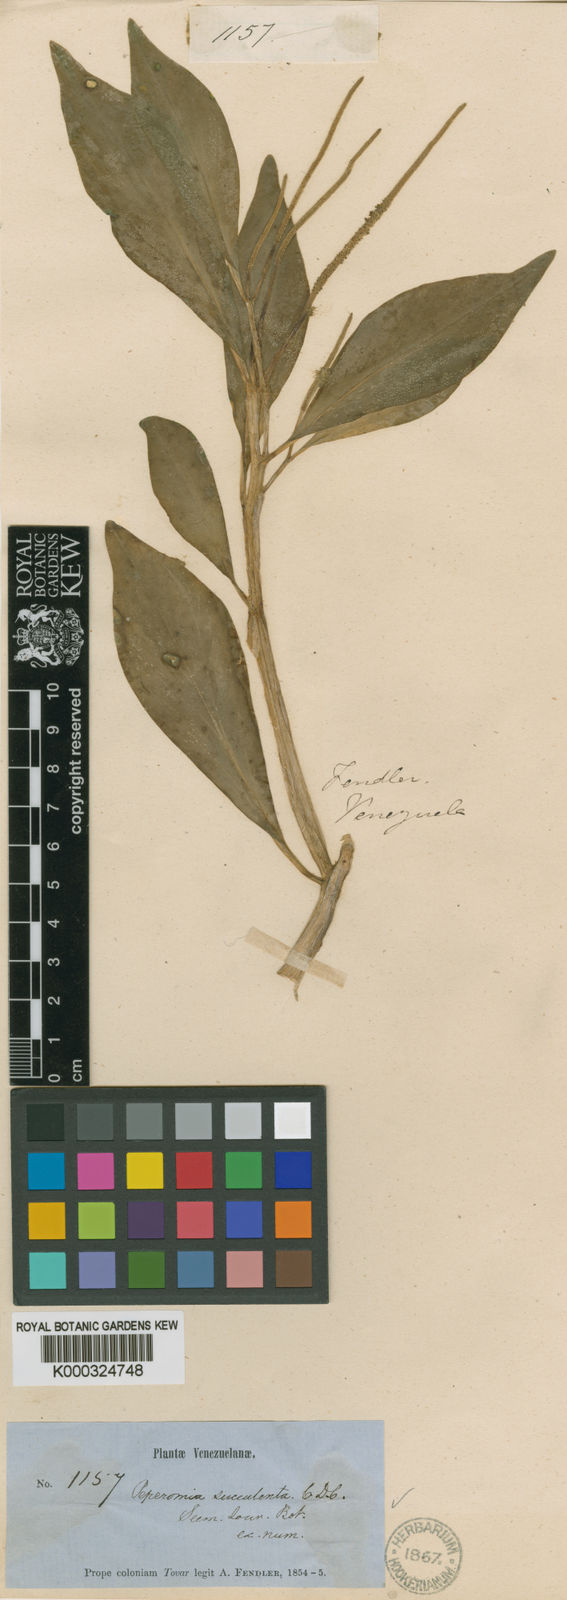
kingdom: Plantae
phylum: Tracheophyta
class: Magnoliopsida
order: Piperales
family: Piperaceae
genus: Peperomia
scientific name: Peperomia succulenta
